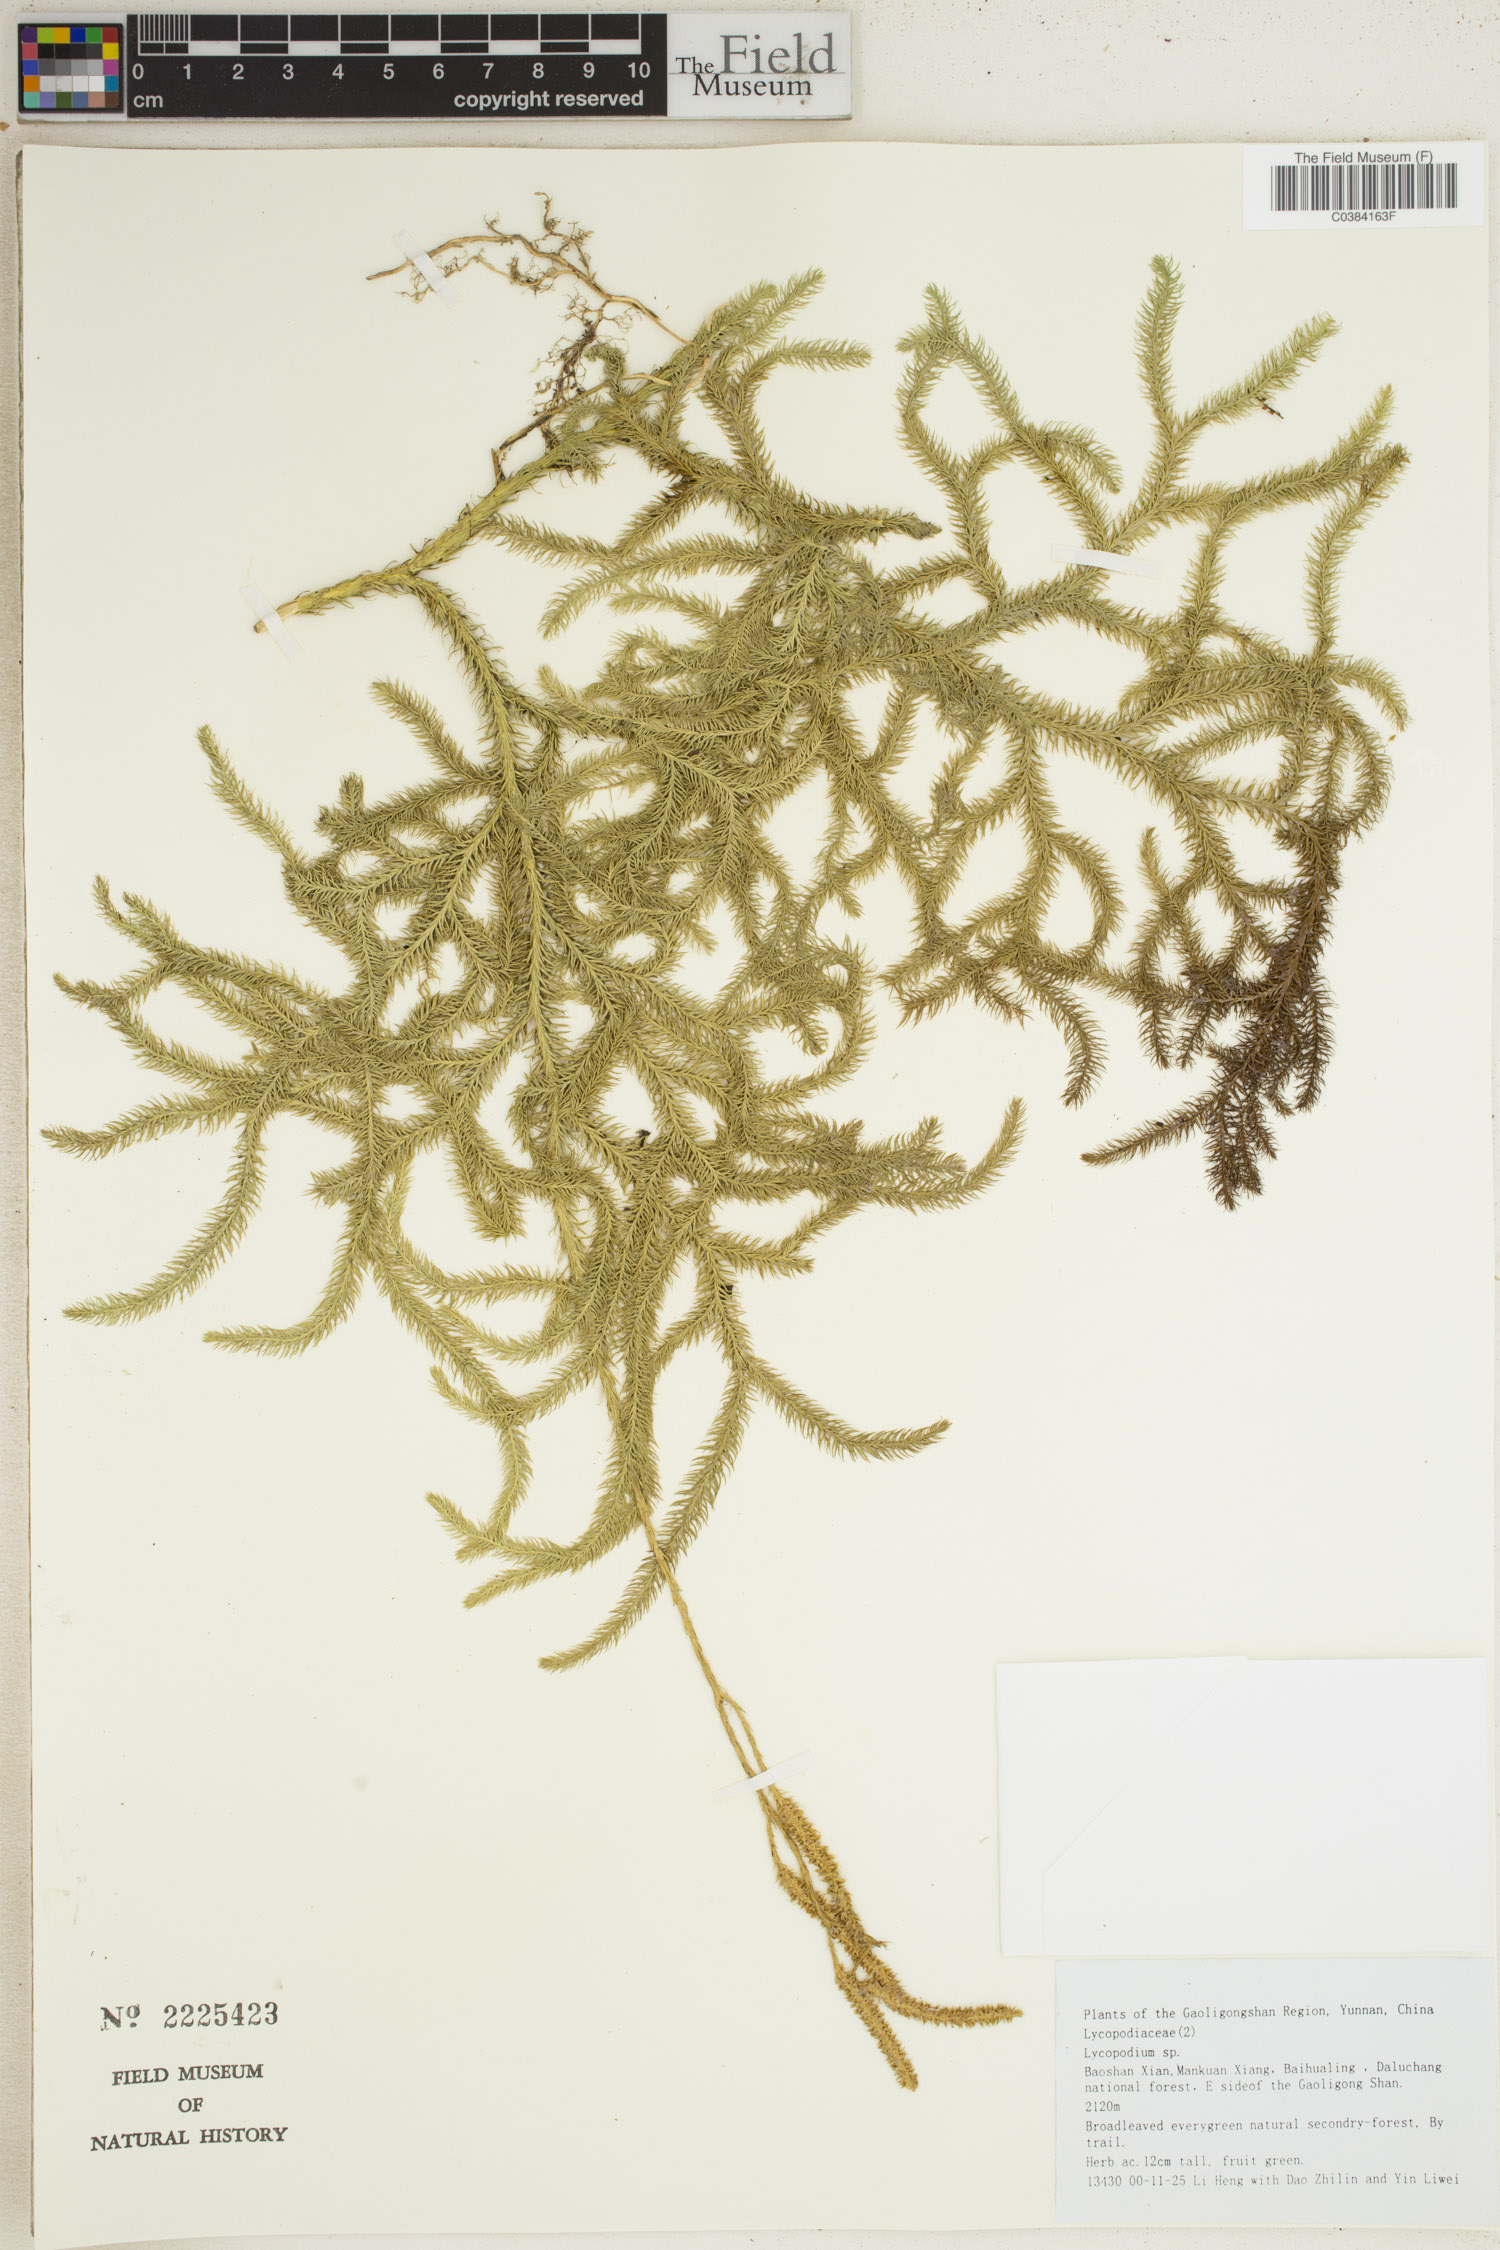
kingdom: Plantae
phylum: Tracheophyta
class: Lycopodiopsida
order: Lycopodiales
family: Lycopodiaceae
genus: Lycopodium
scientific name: Lycopodium
